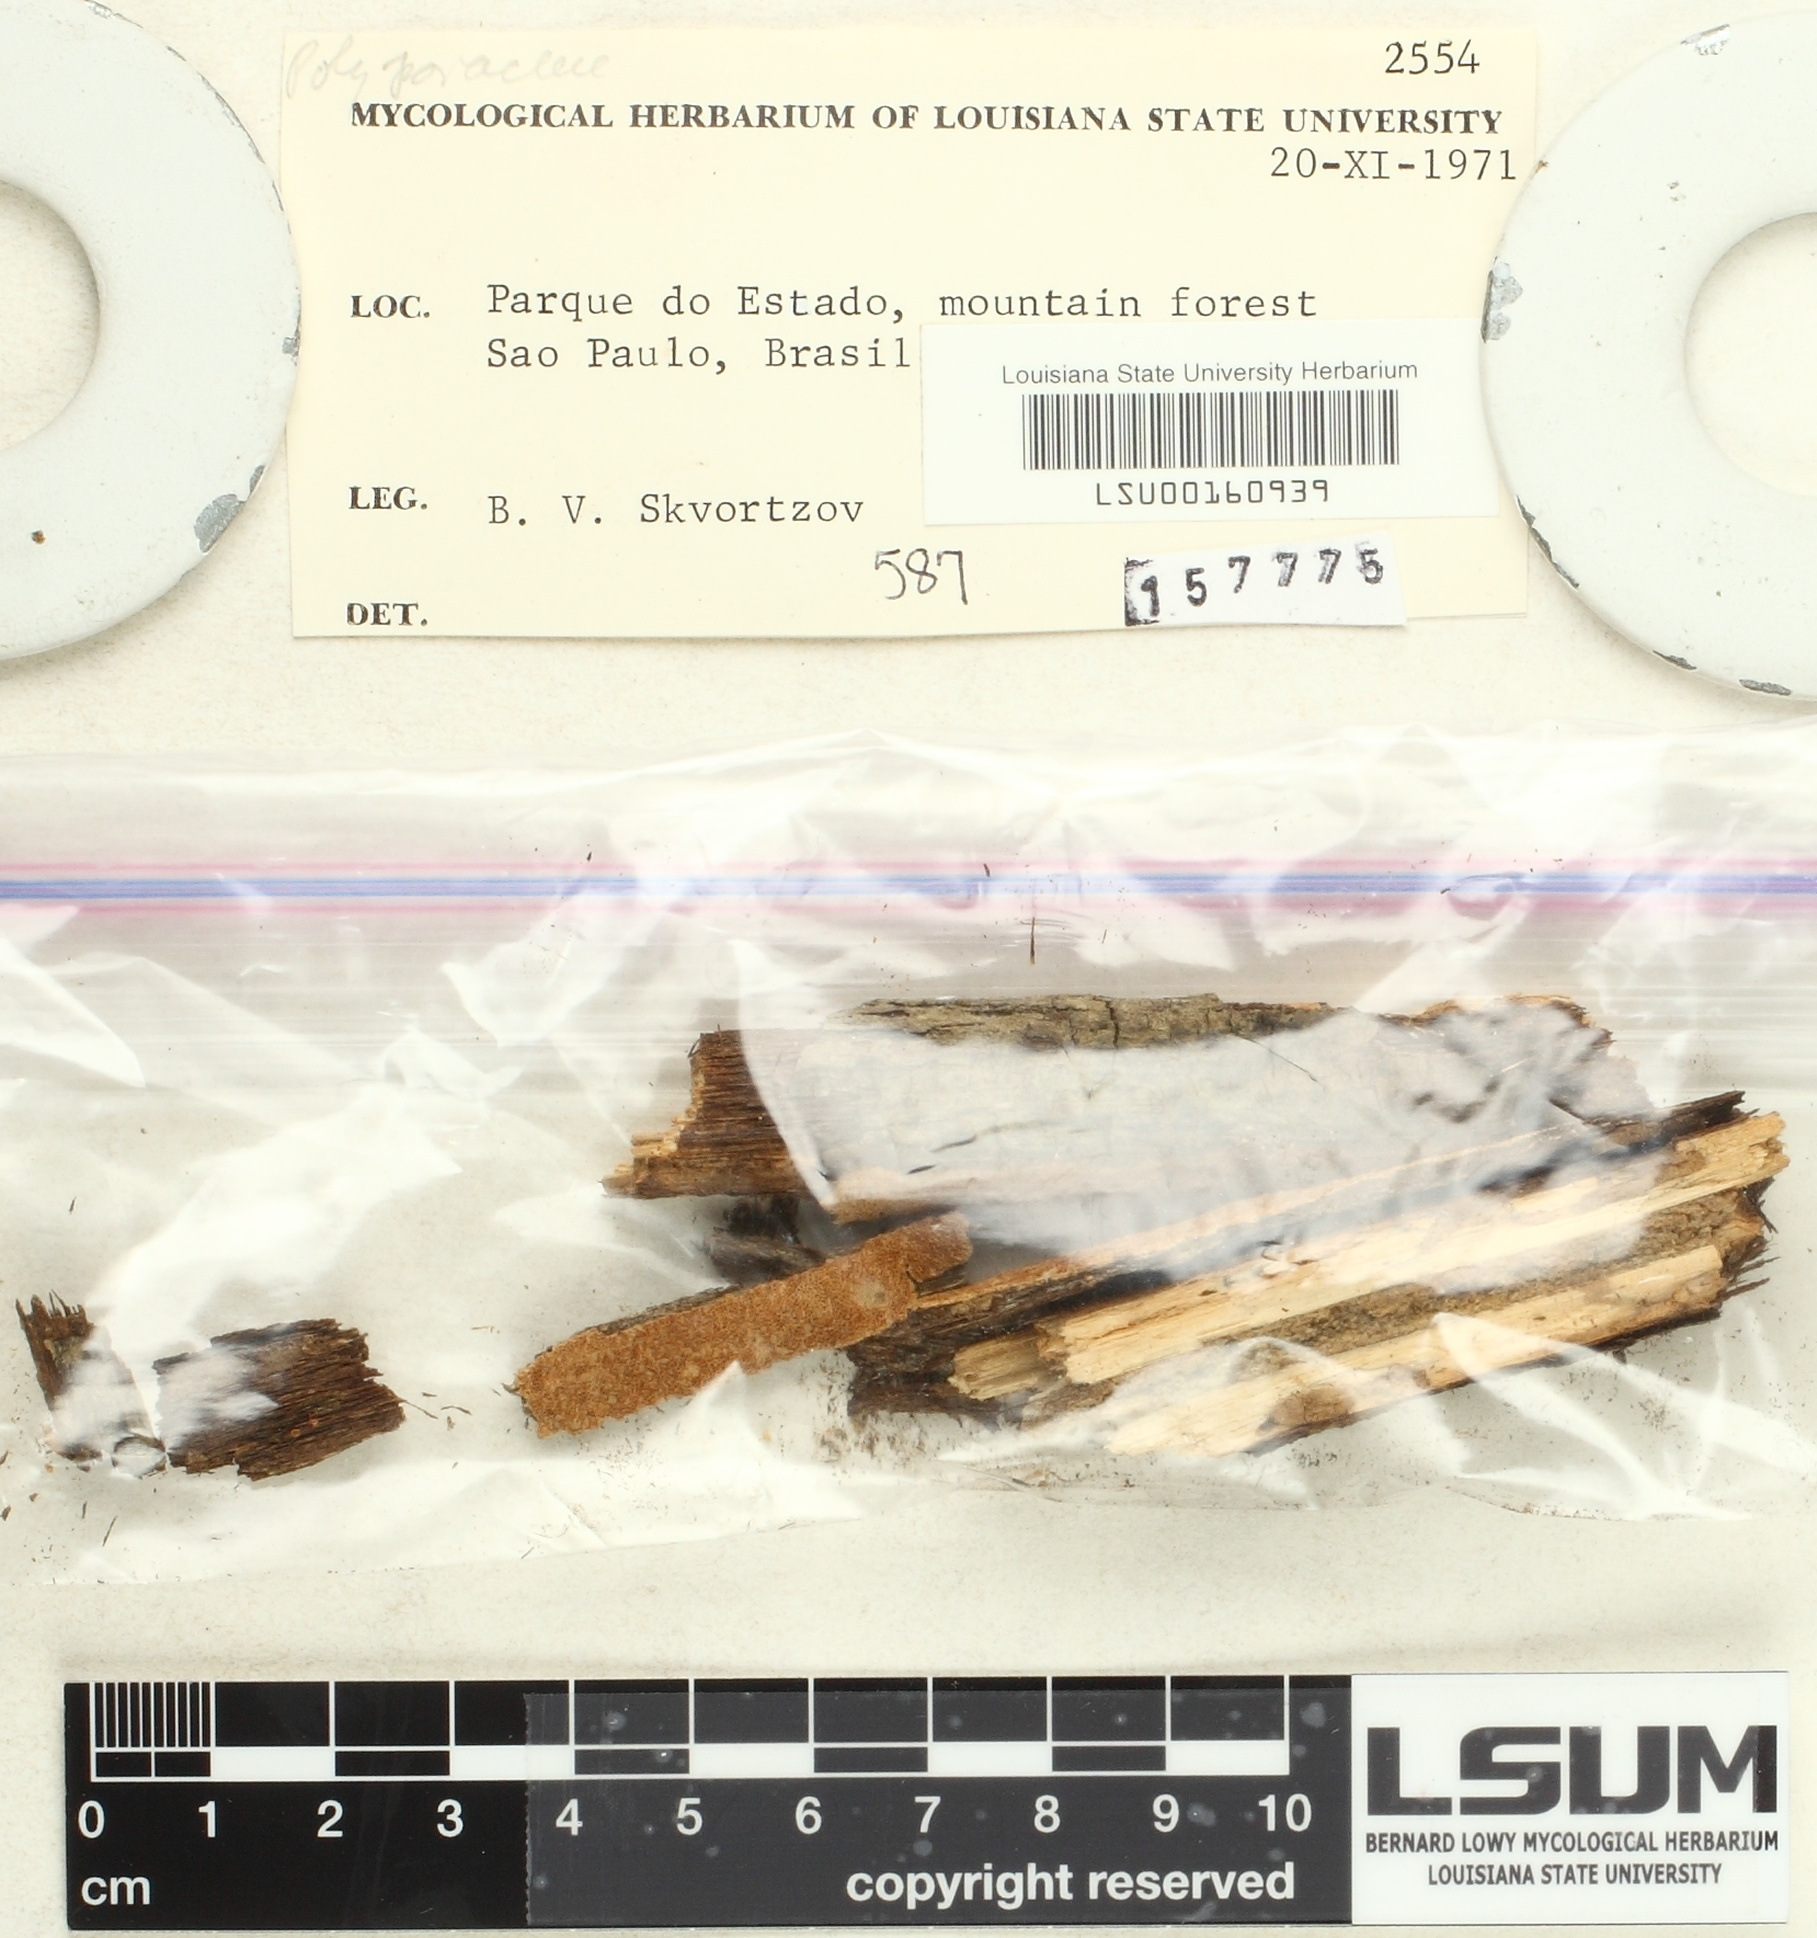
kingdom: Fungi
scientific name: Fungi
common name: Fungi
